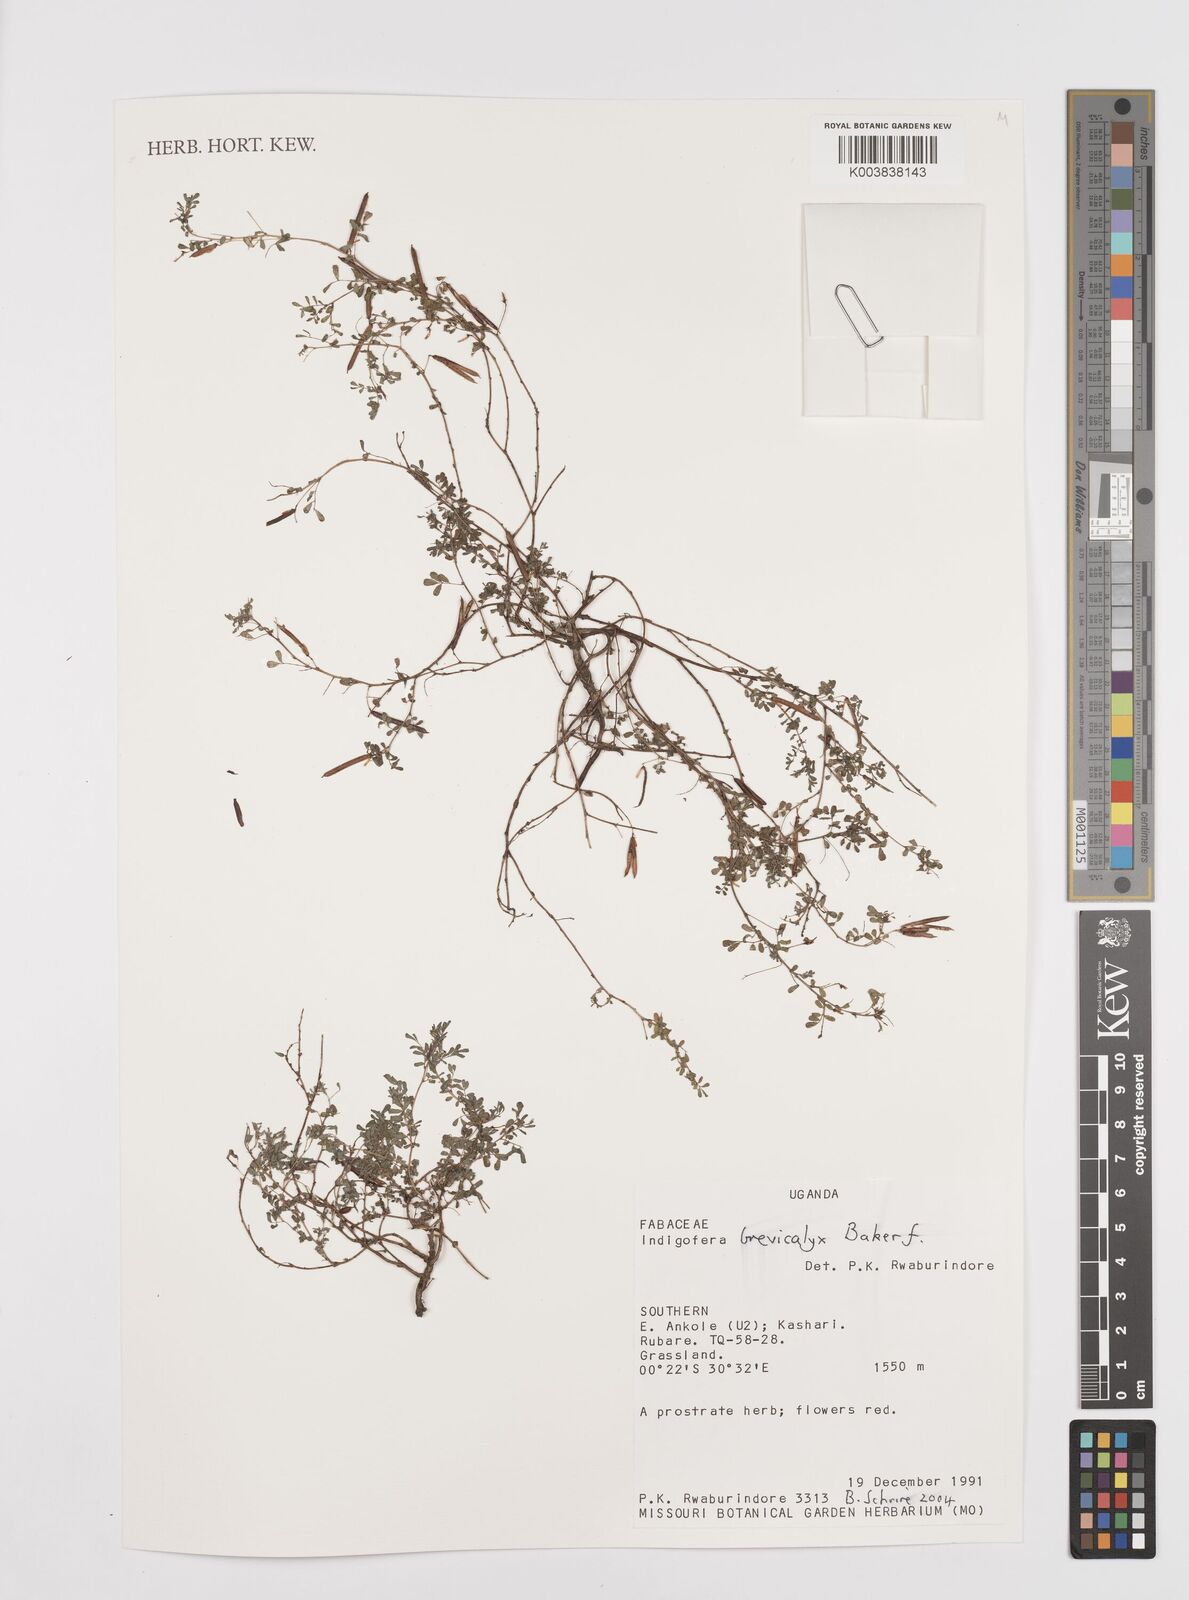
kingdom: Plantae
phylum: Tracheophyta
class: Magnoliopsida
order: Fabales
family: Fabaceae
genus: Indigofera
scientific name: Indigofera brevicalyx
